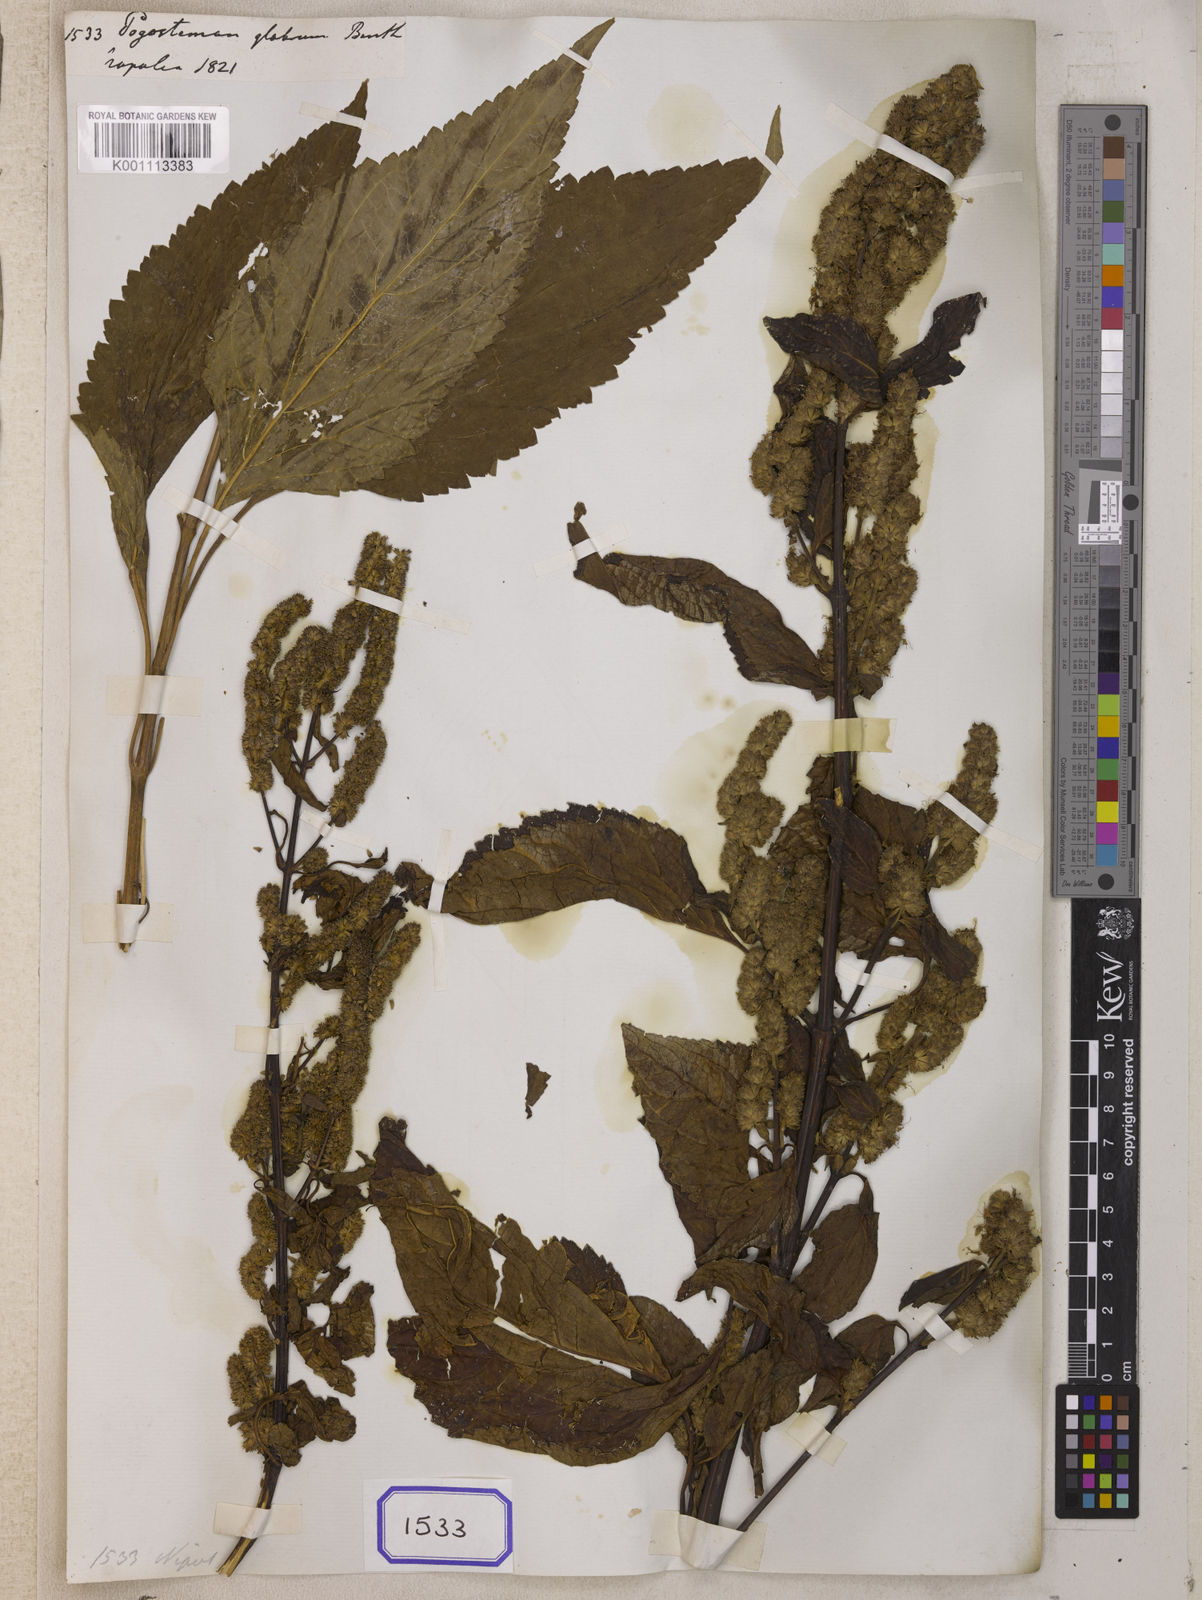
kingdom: Plantae
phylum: Tracheophyta
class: Magnoliopsida
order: Lamiales
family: Lamiaceae
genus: Pogostemon
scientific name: Pogostemon glaber
